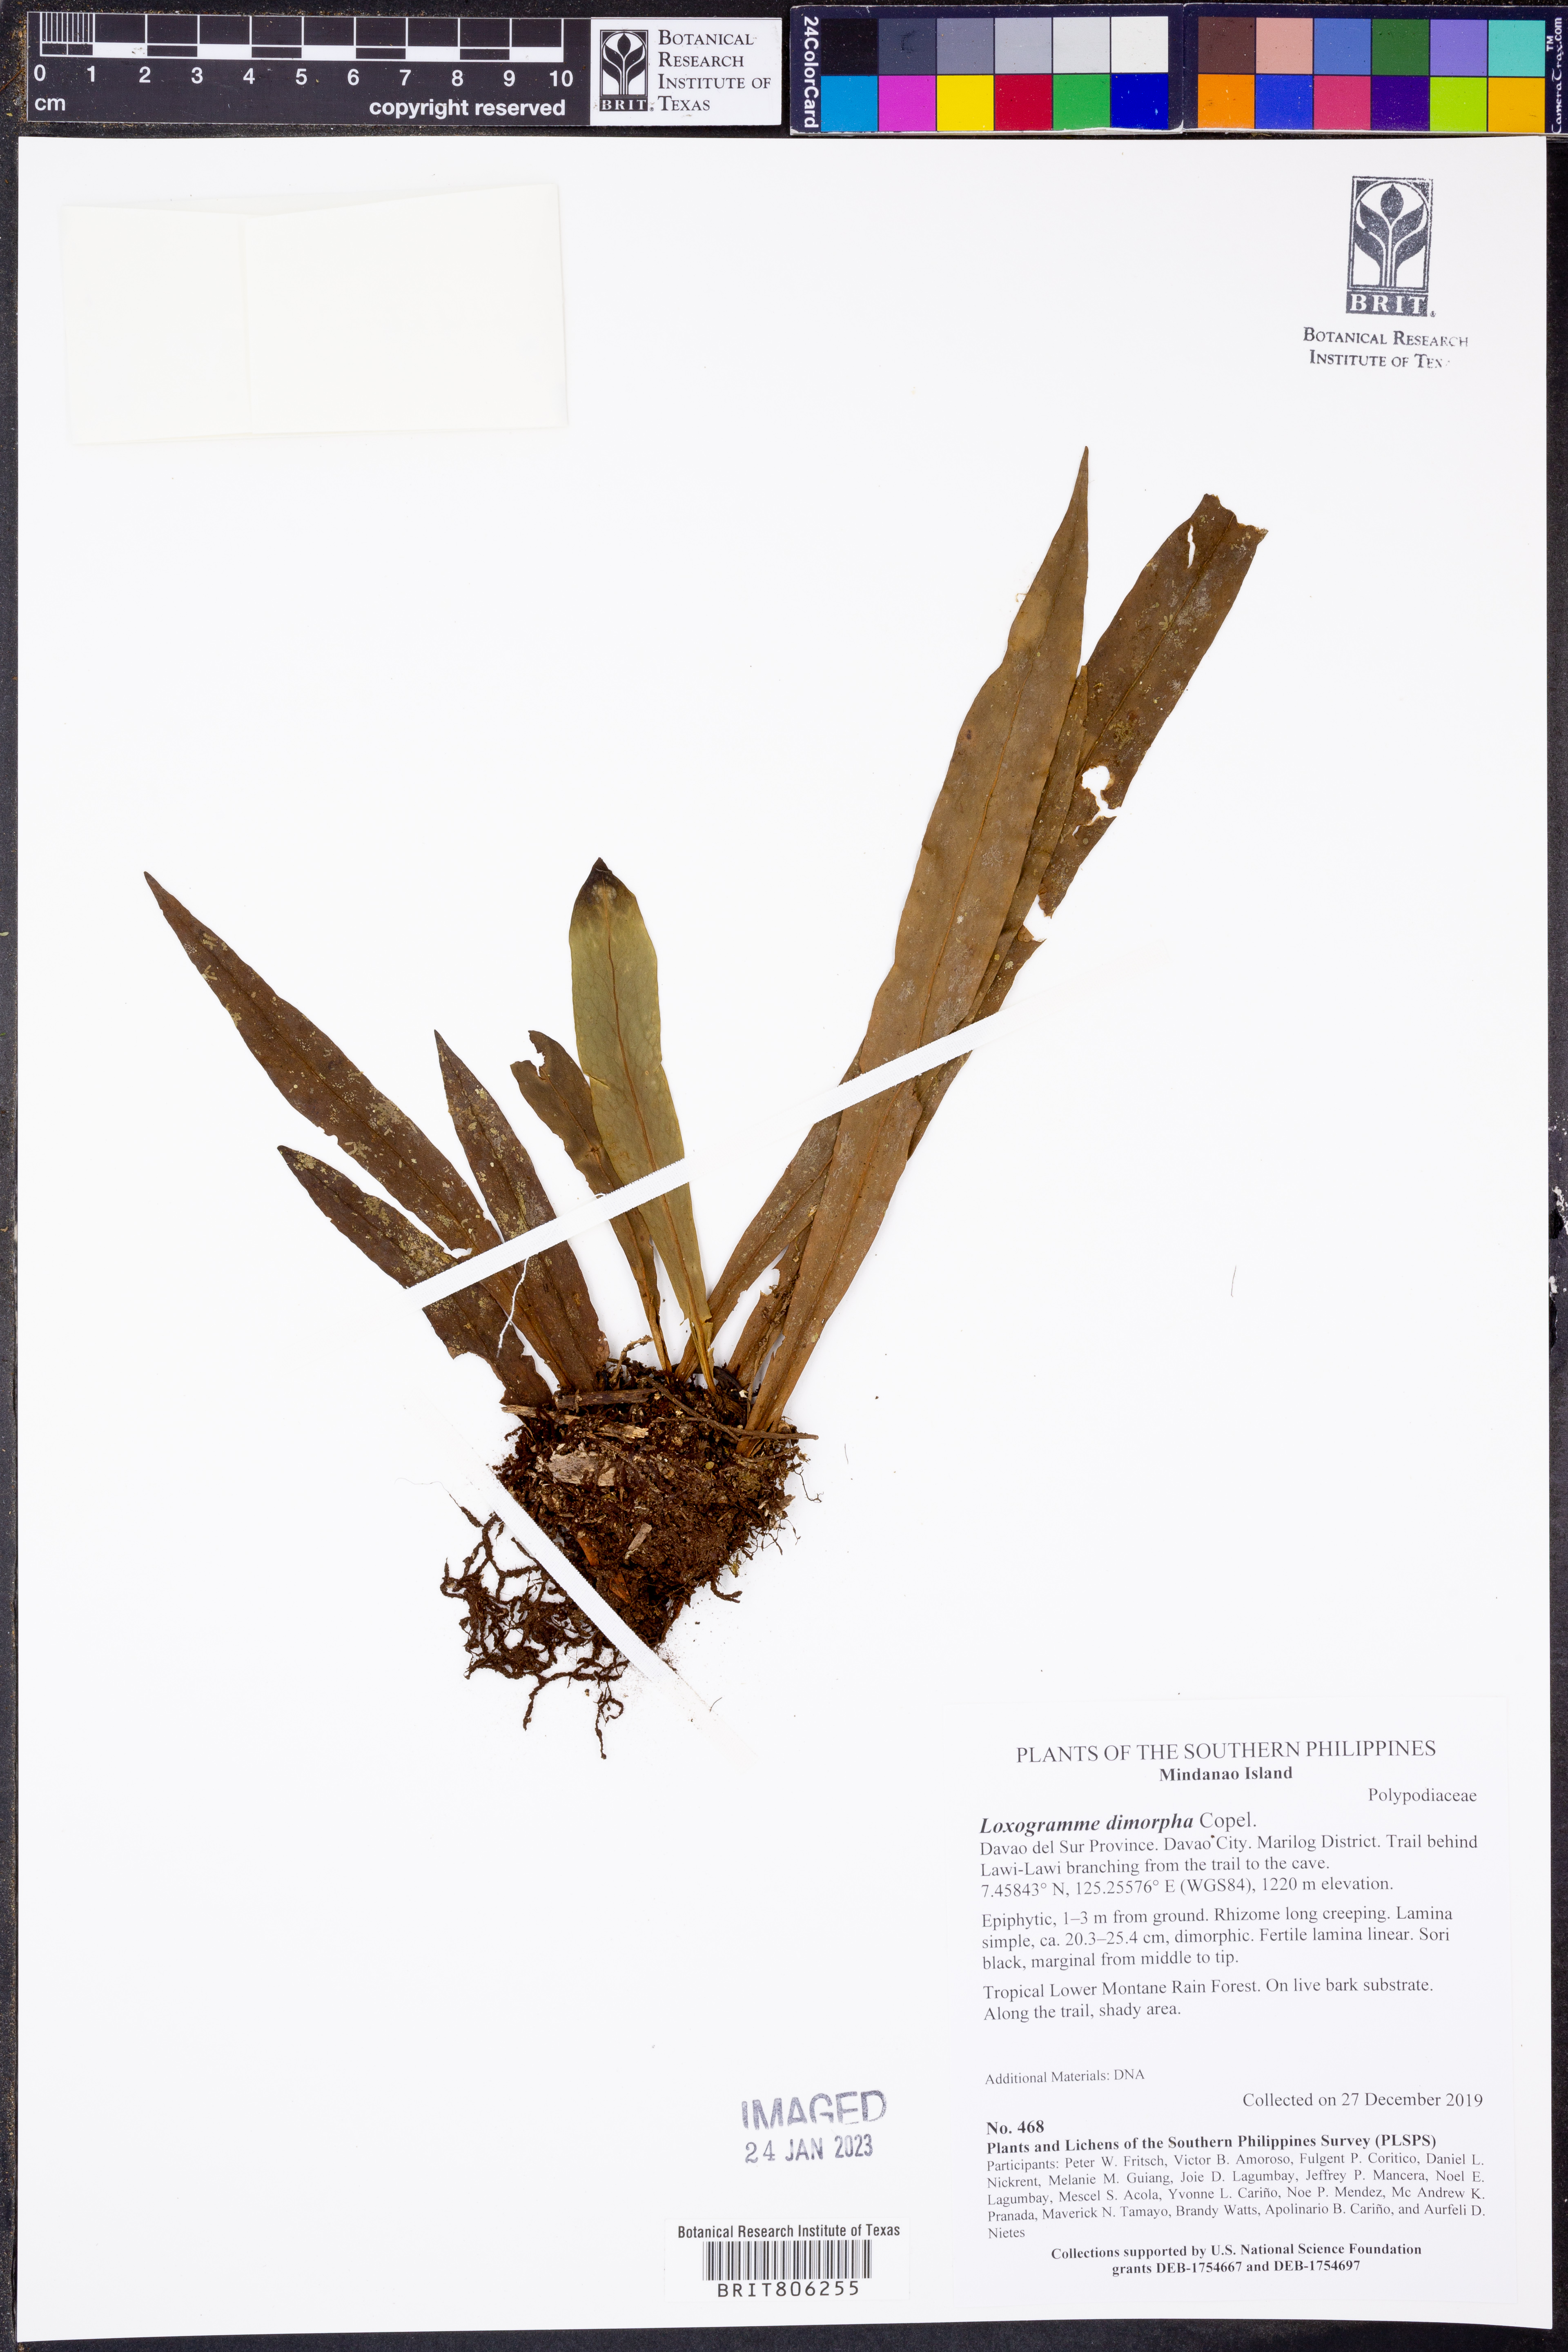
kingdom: Plantae
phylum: Tracheophyta
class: Polypodiopsida
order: Polypodiales
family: Polypodiaceae
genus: Loxogramme
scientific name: Loxogramme dimorpha
